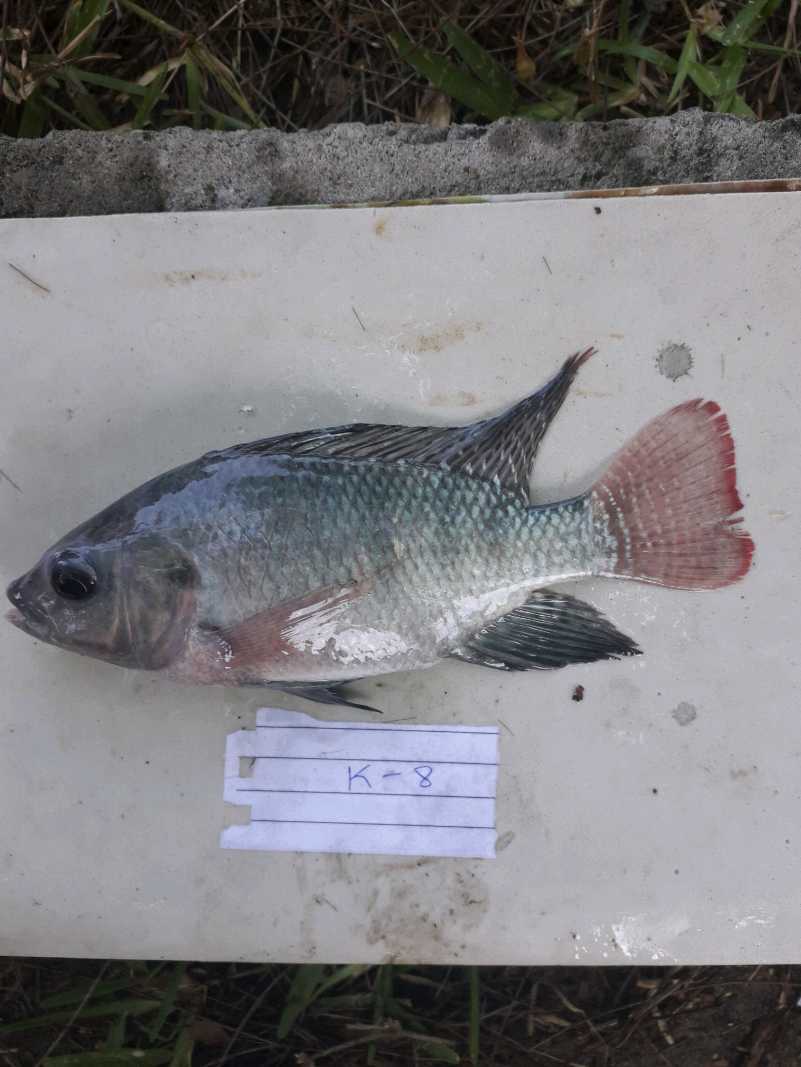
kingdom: Animalia
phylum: Chordata
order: Perciformes
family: Cichlidae
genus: Oreochromis
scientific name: Oreochromis niloticus
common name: Nile tilapia
